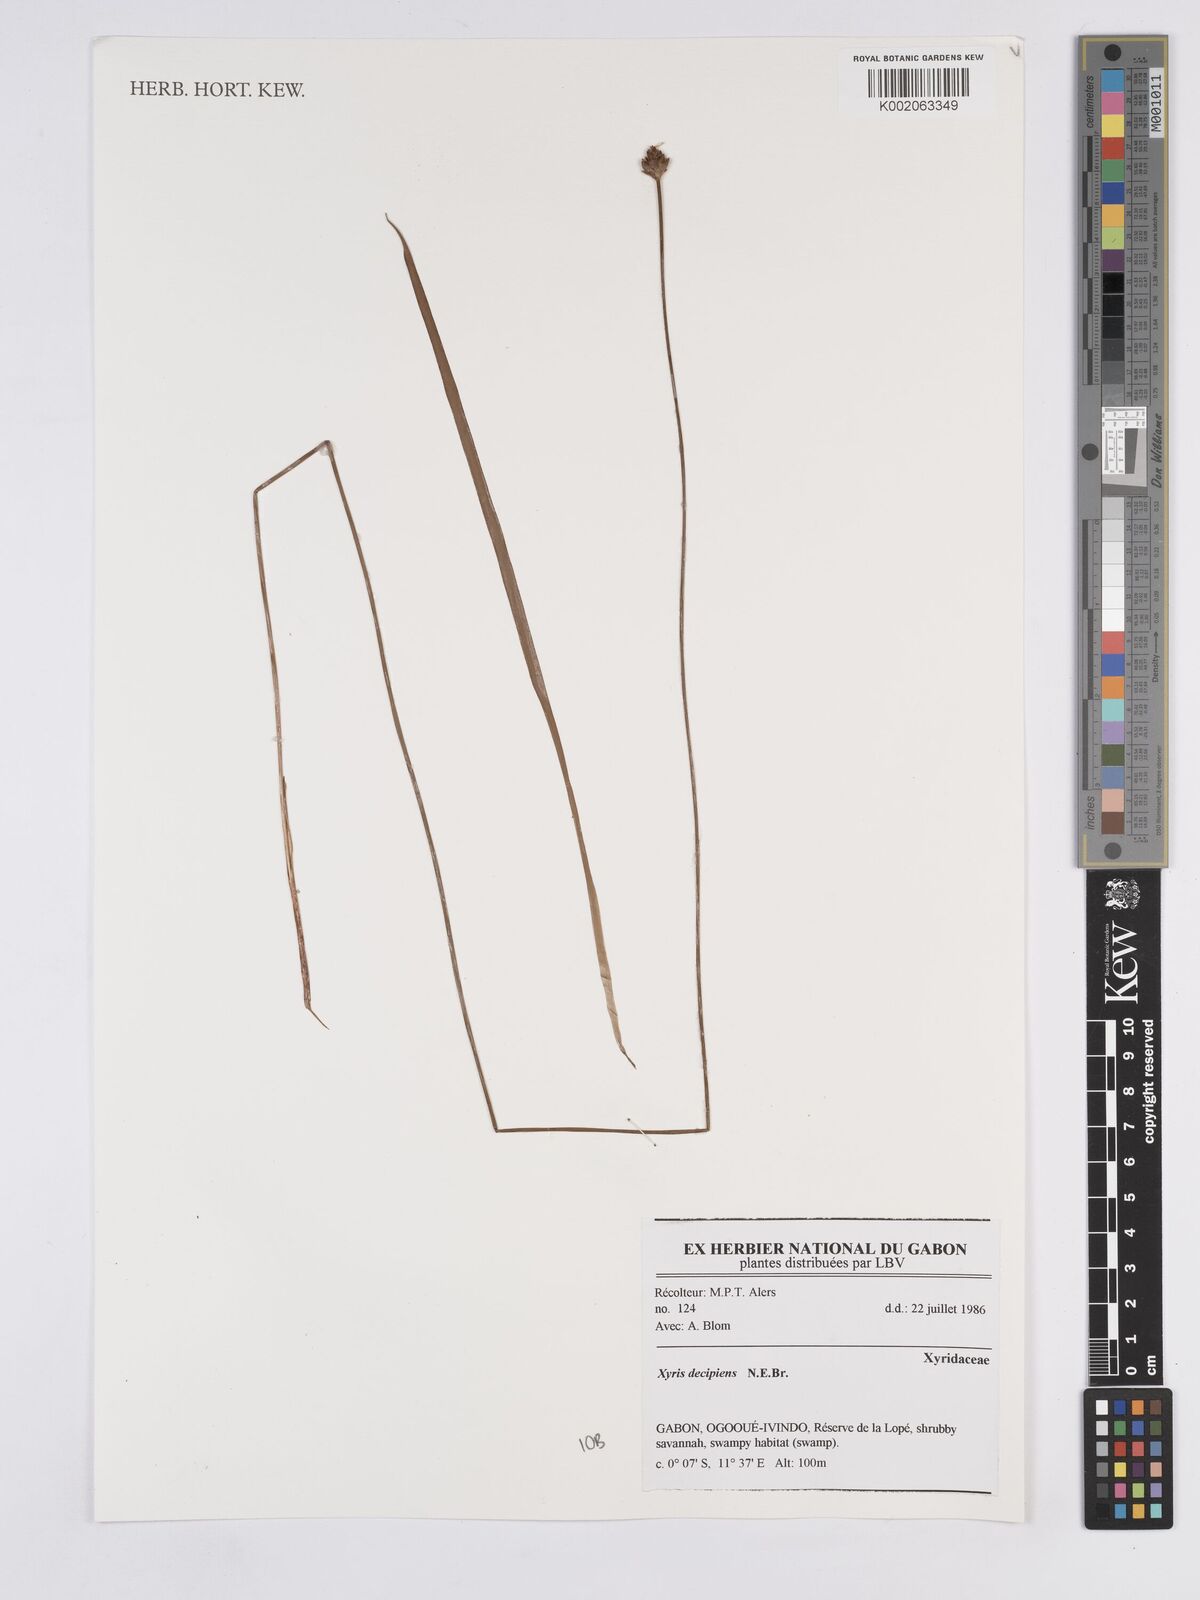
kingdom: Plantae
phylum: Tracheophyta
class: Liliopsida
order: Poales
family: Xyridaceae
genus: Xyris
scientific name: Xyris decipiens
